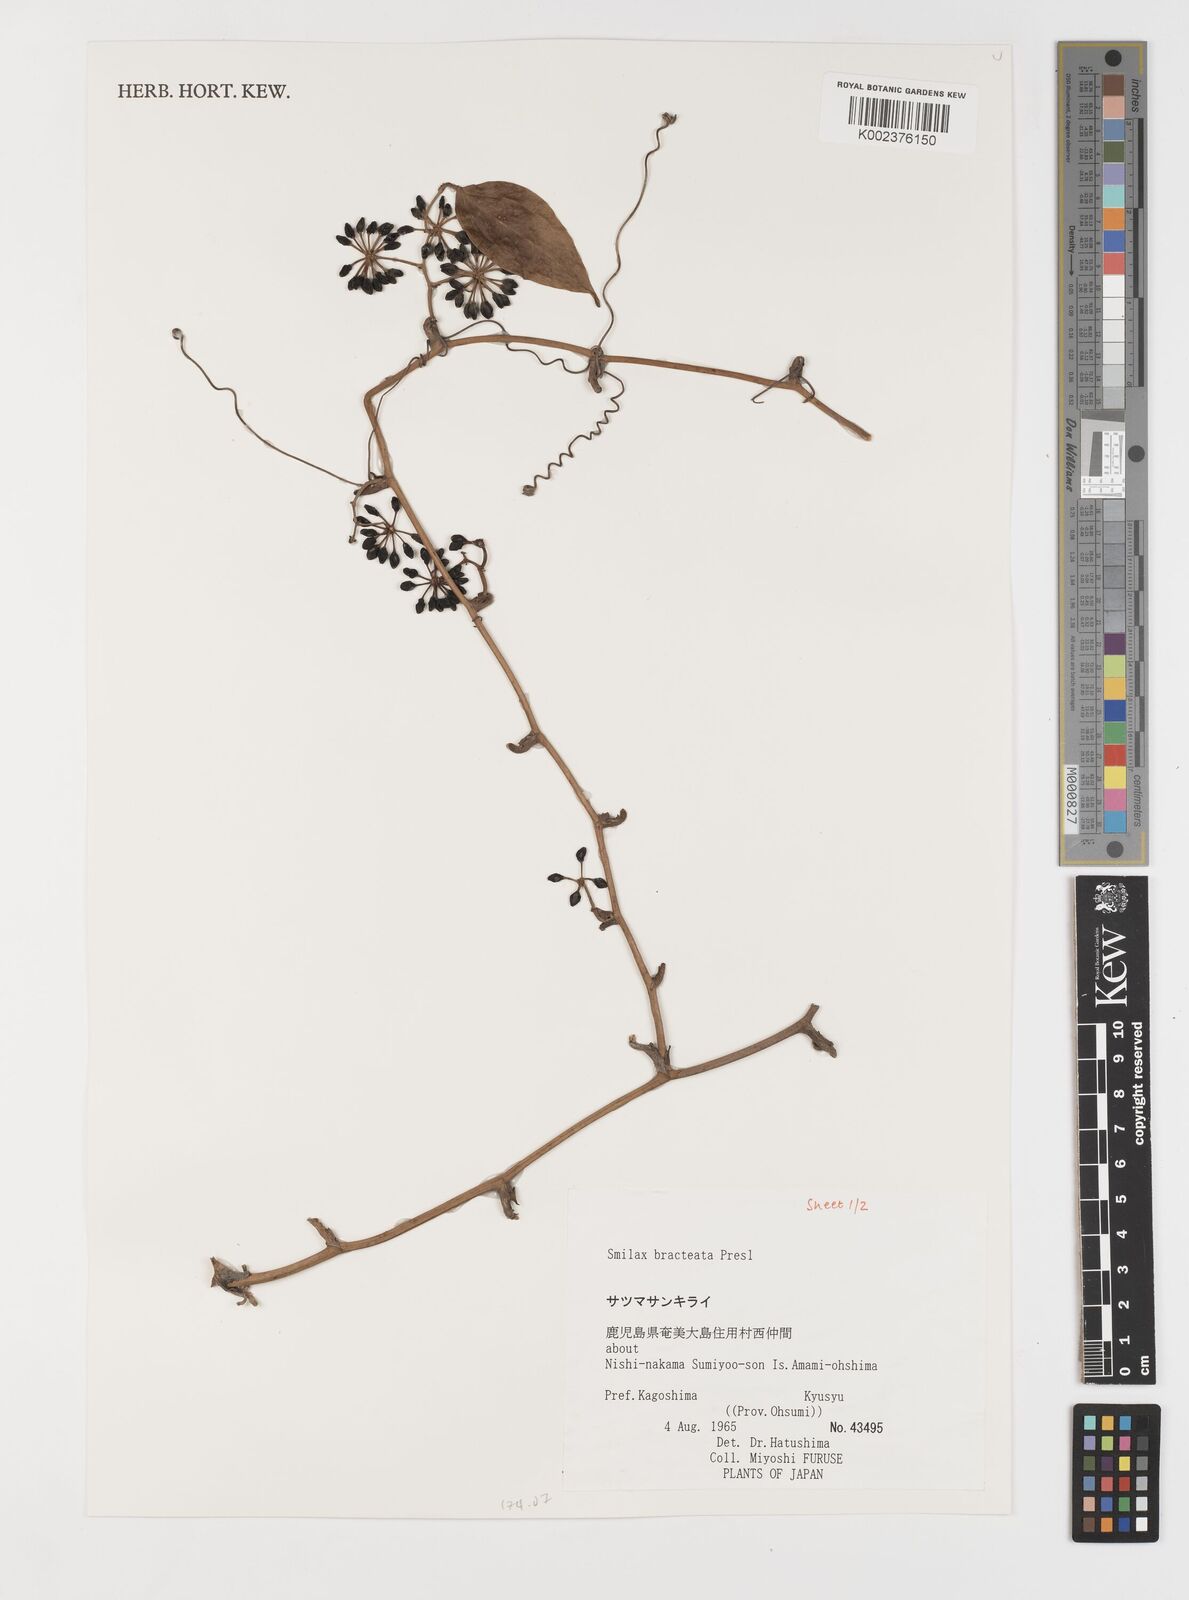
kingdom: Plantae
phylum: Tracheophyta
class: Liliopsida
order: Liliales
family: Smilacaceae
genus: Smilax
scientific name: Smilax bracteata
